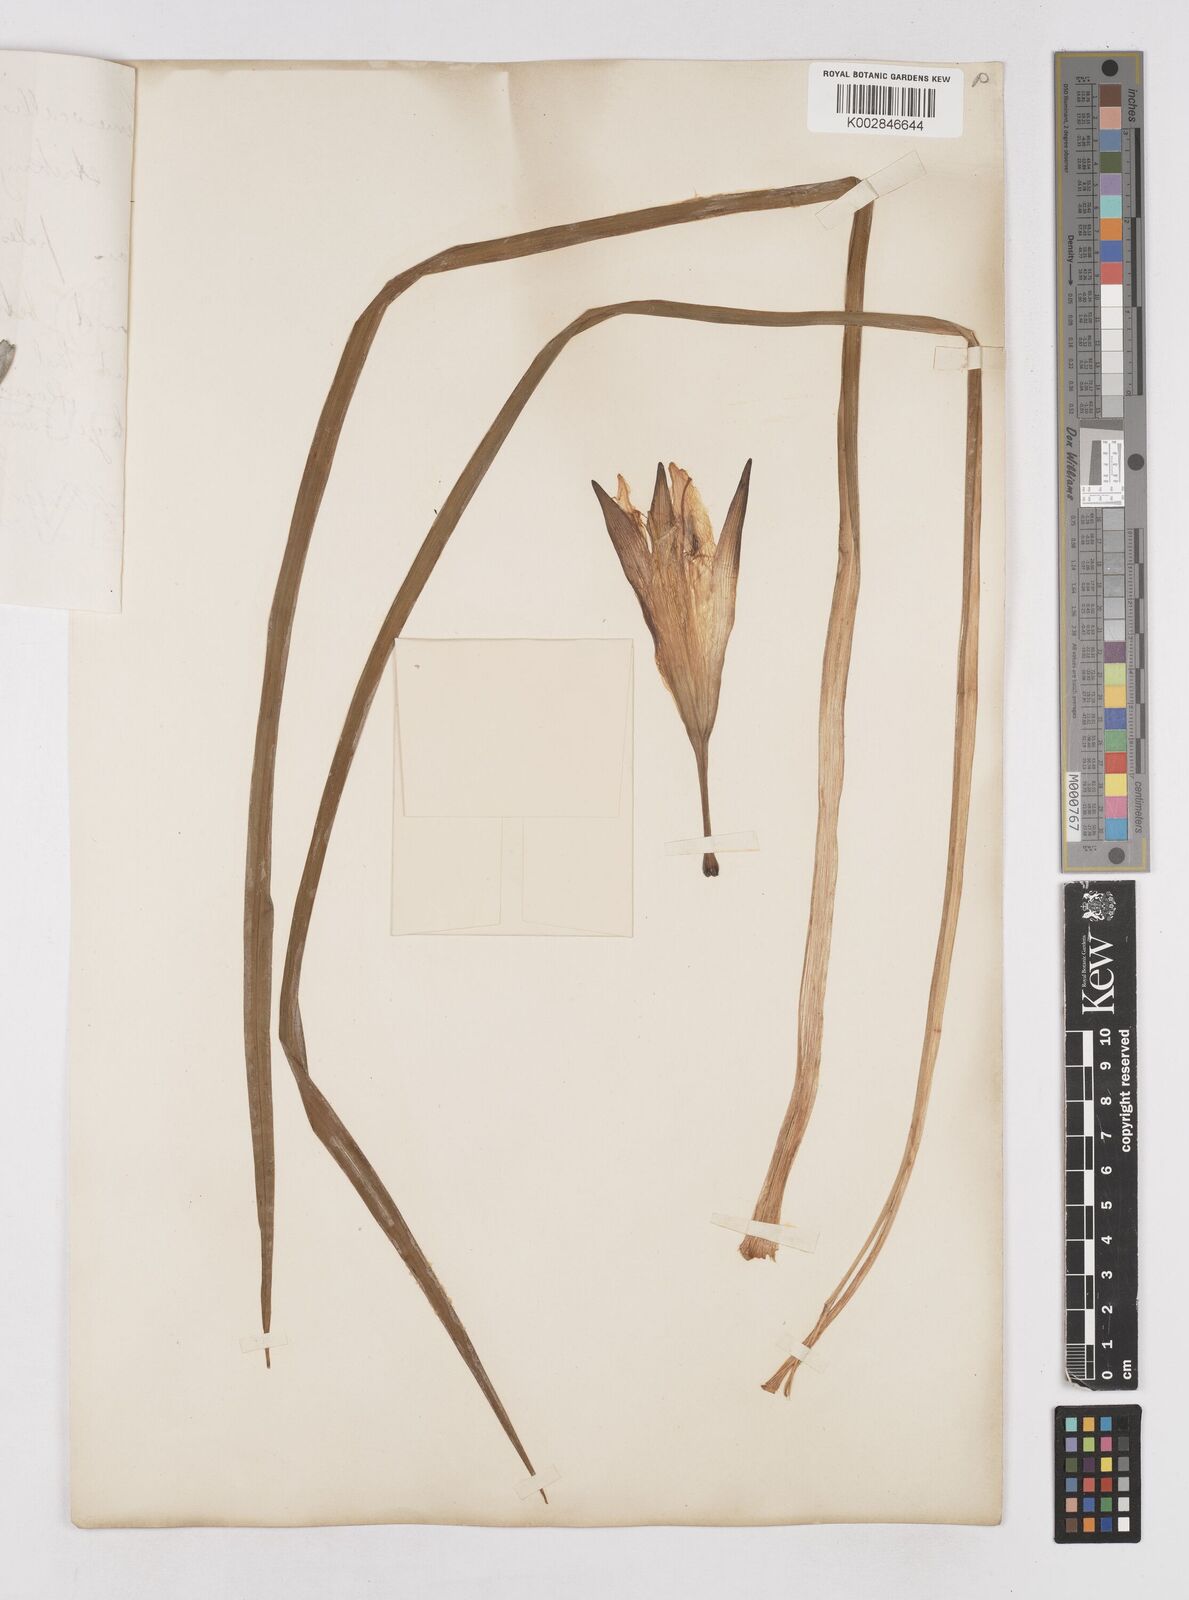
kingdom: Plantae
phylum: Tracheophyta
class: Liliopsida
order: Asparagales
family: Asphodelaceae
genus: Hemerocallis
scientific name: Hemerocallis minor
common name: Small daylily
